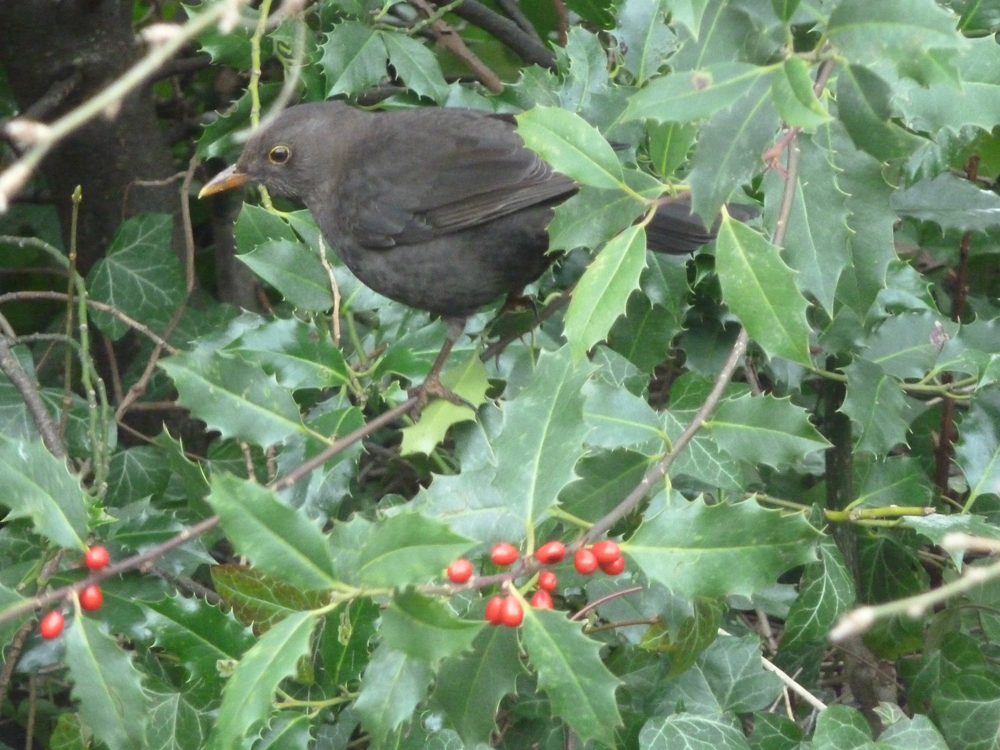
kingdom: Animalia
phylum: Chordata
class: Aves
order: Passeriformes
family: Turdidae
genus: Turdus
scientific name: Turdus merula
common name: Common blackbird
